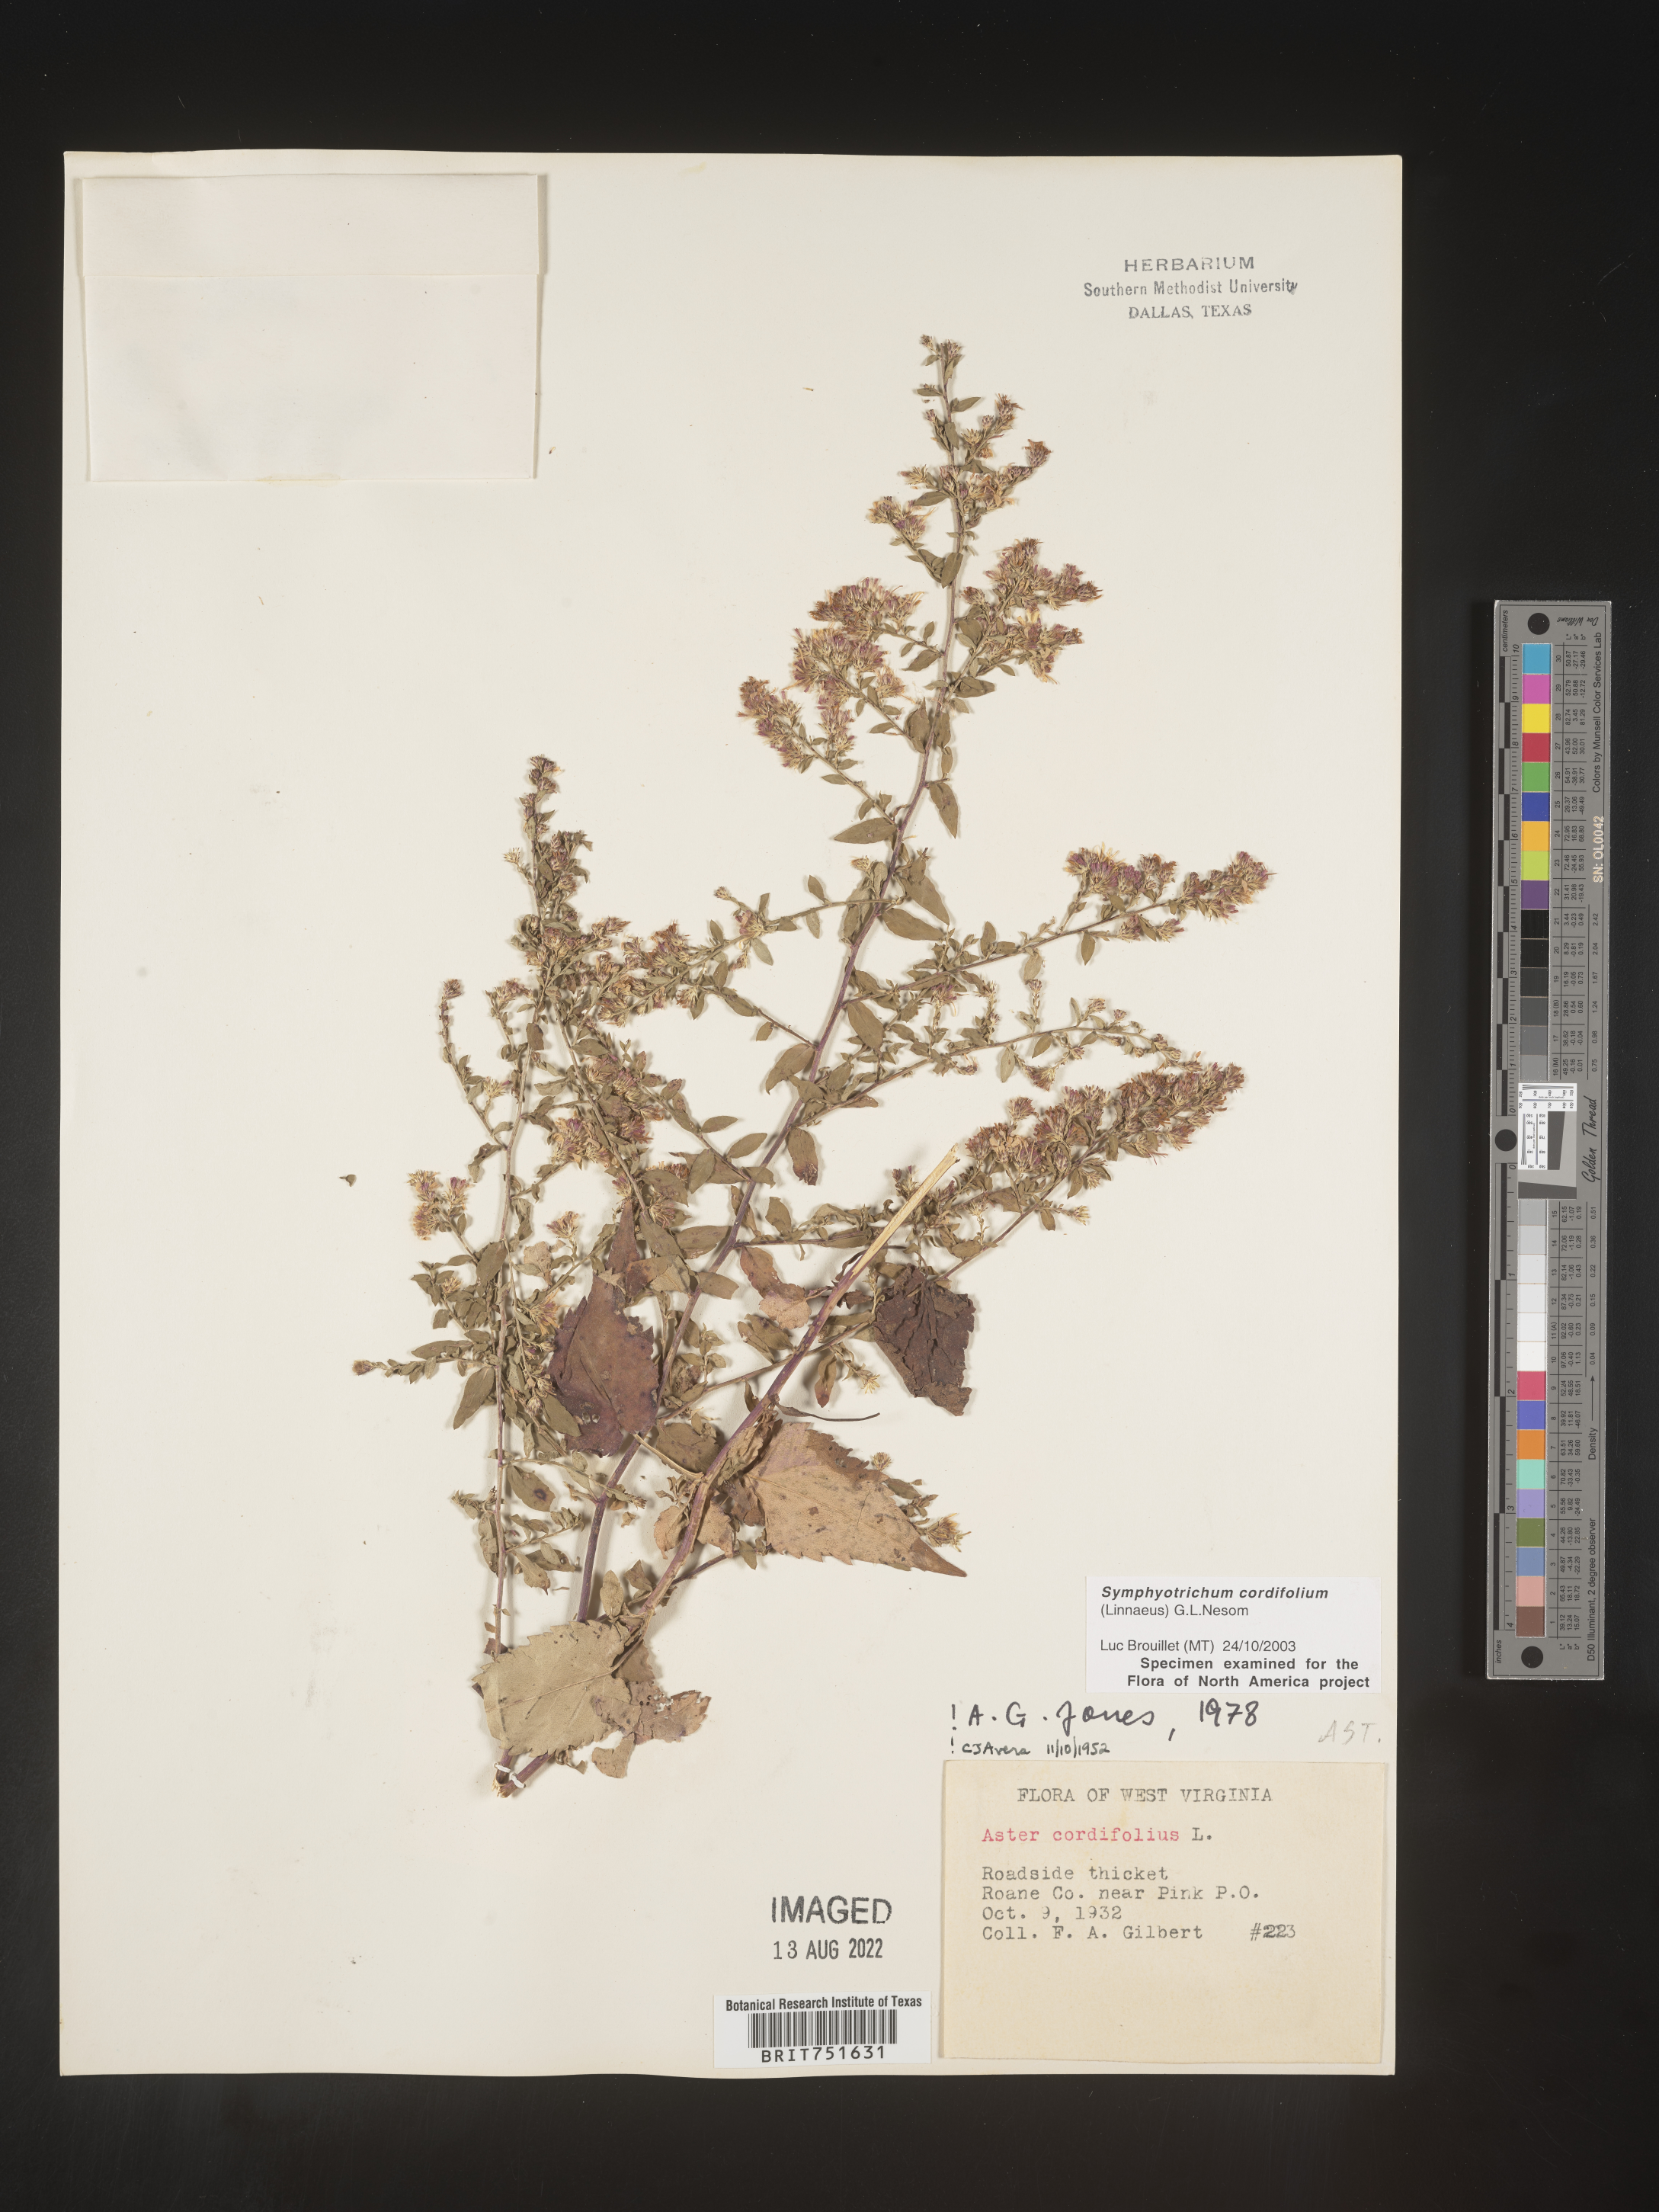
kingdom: Plantae
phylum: Tracheophyta
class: Magnoliopsida
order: Asterales
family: Asteraceae
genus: Symphyotrichum
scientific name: Symphyotrichum cordifolium
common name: Beeweed
